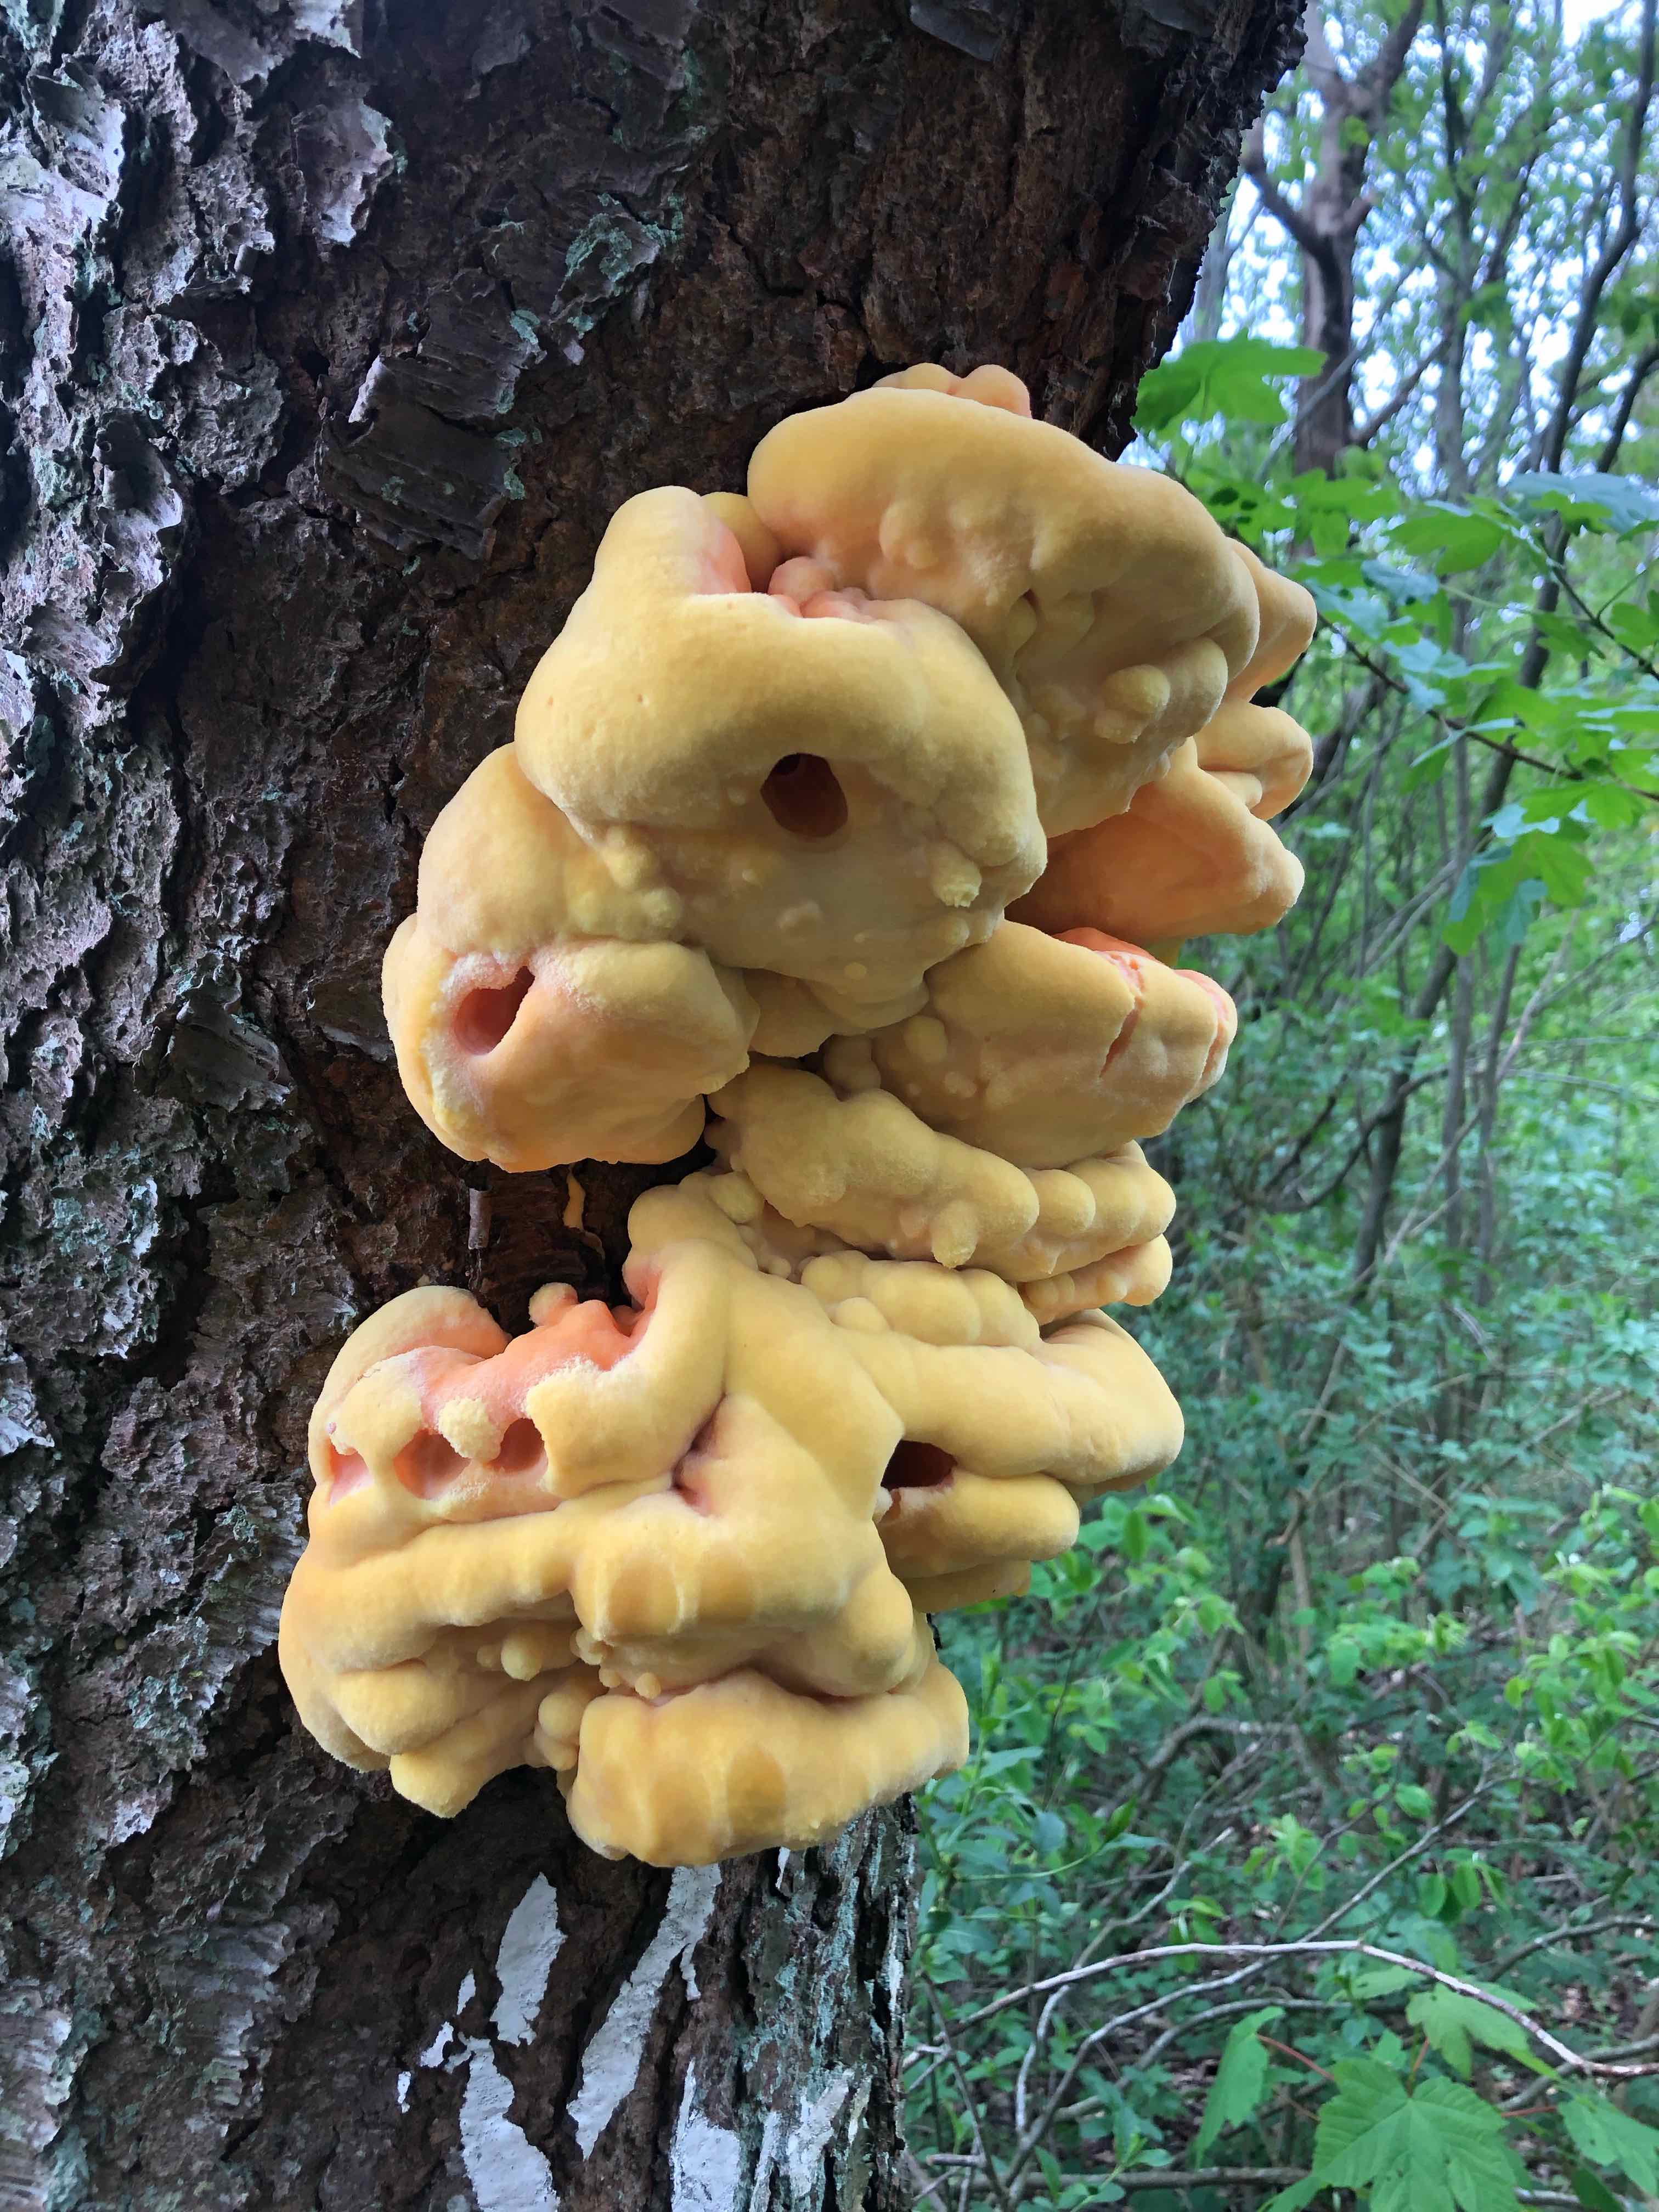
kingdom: Fungi
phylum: Basidiomycota
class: Agaricomycetes
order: Polyporales
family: Laetiporaceae
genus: Laetiporus
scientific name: Laetiporus sulphureus
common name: svovlporesvamp
